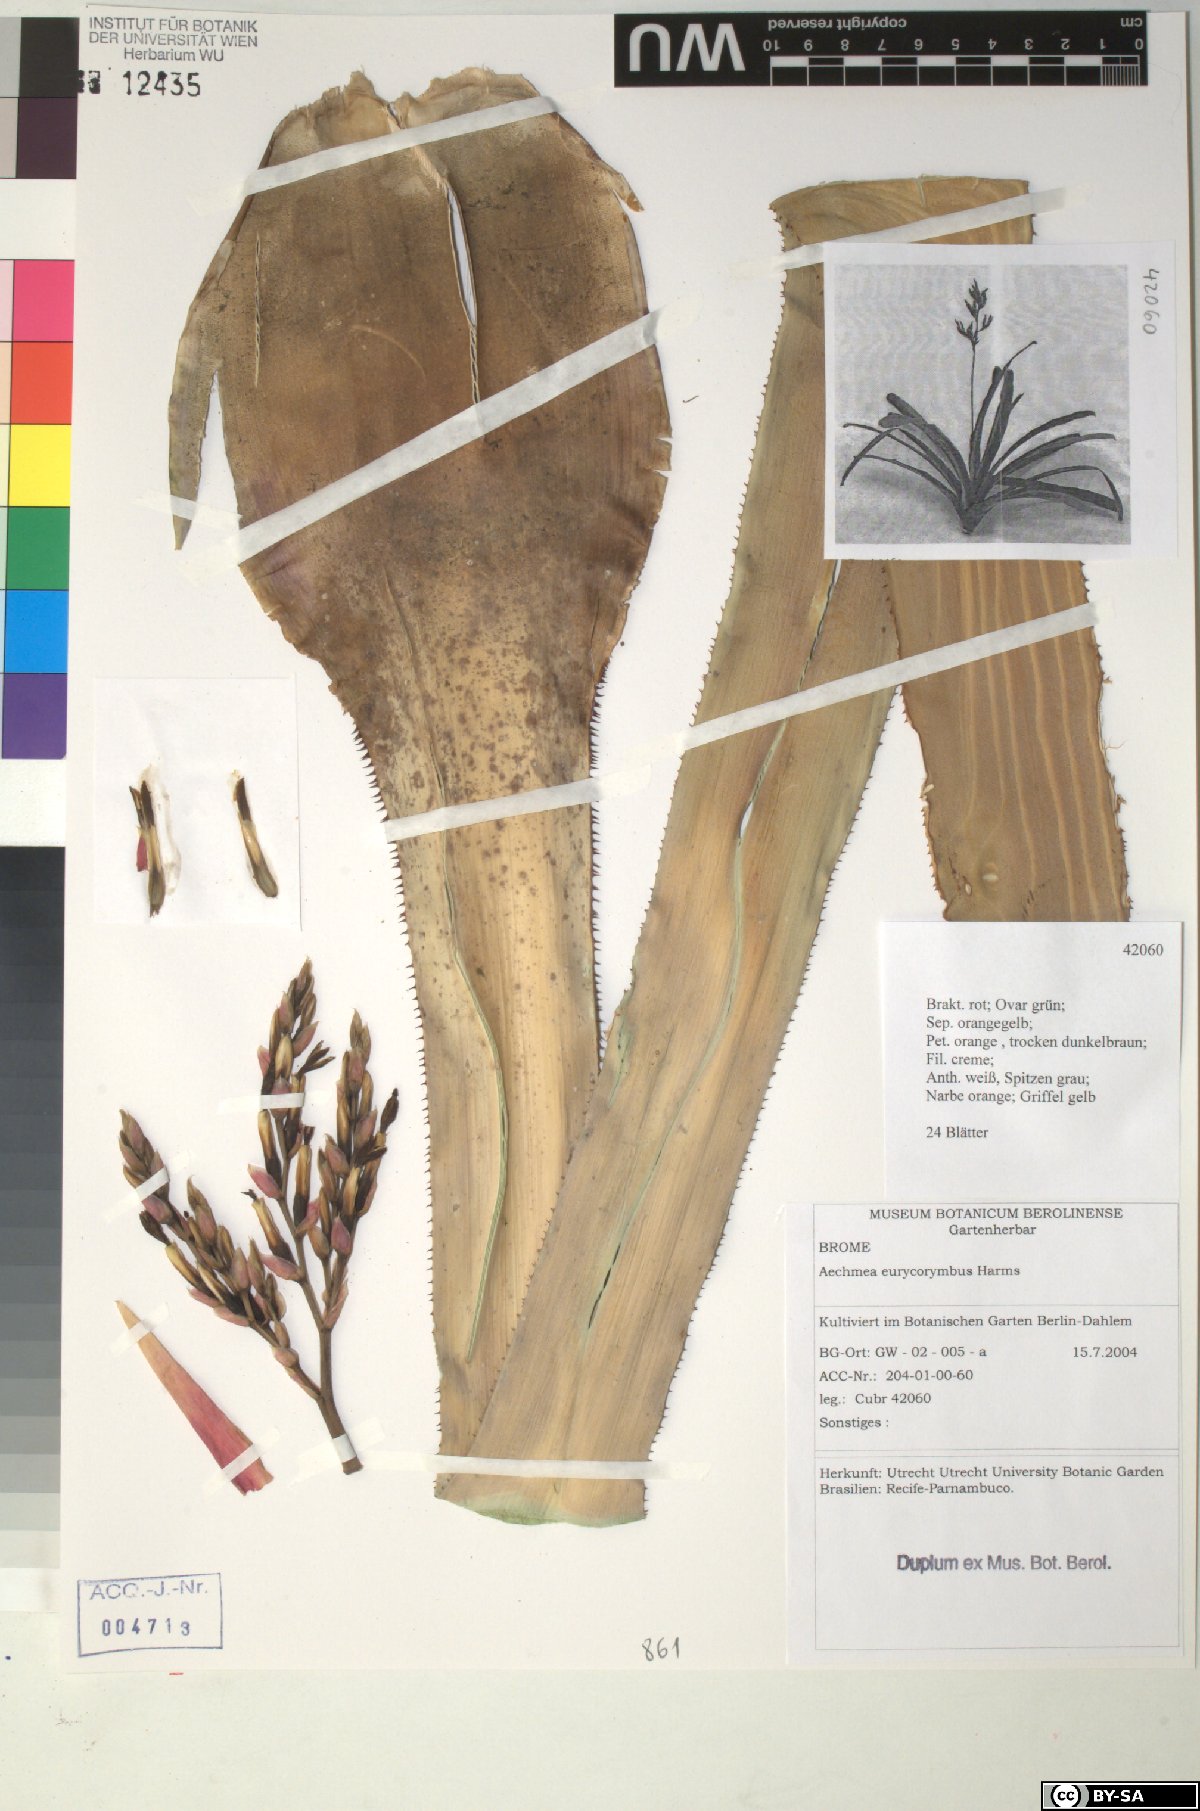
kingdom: Plantae
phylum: Tracheophyta
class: Liliopsida
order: Poales
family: Bromeliaceae
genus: Aechmea
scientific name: Aechmea eurycorymbus
